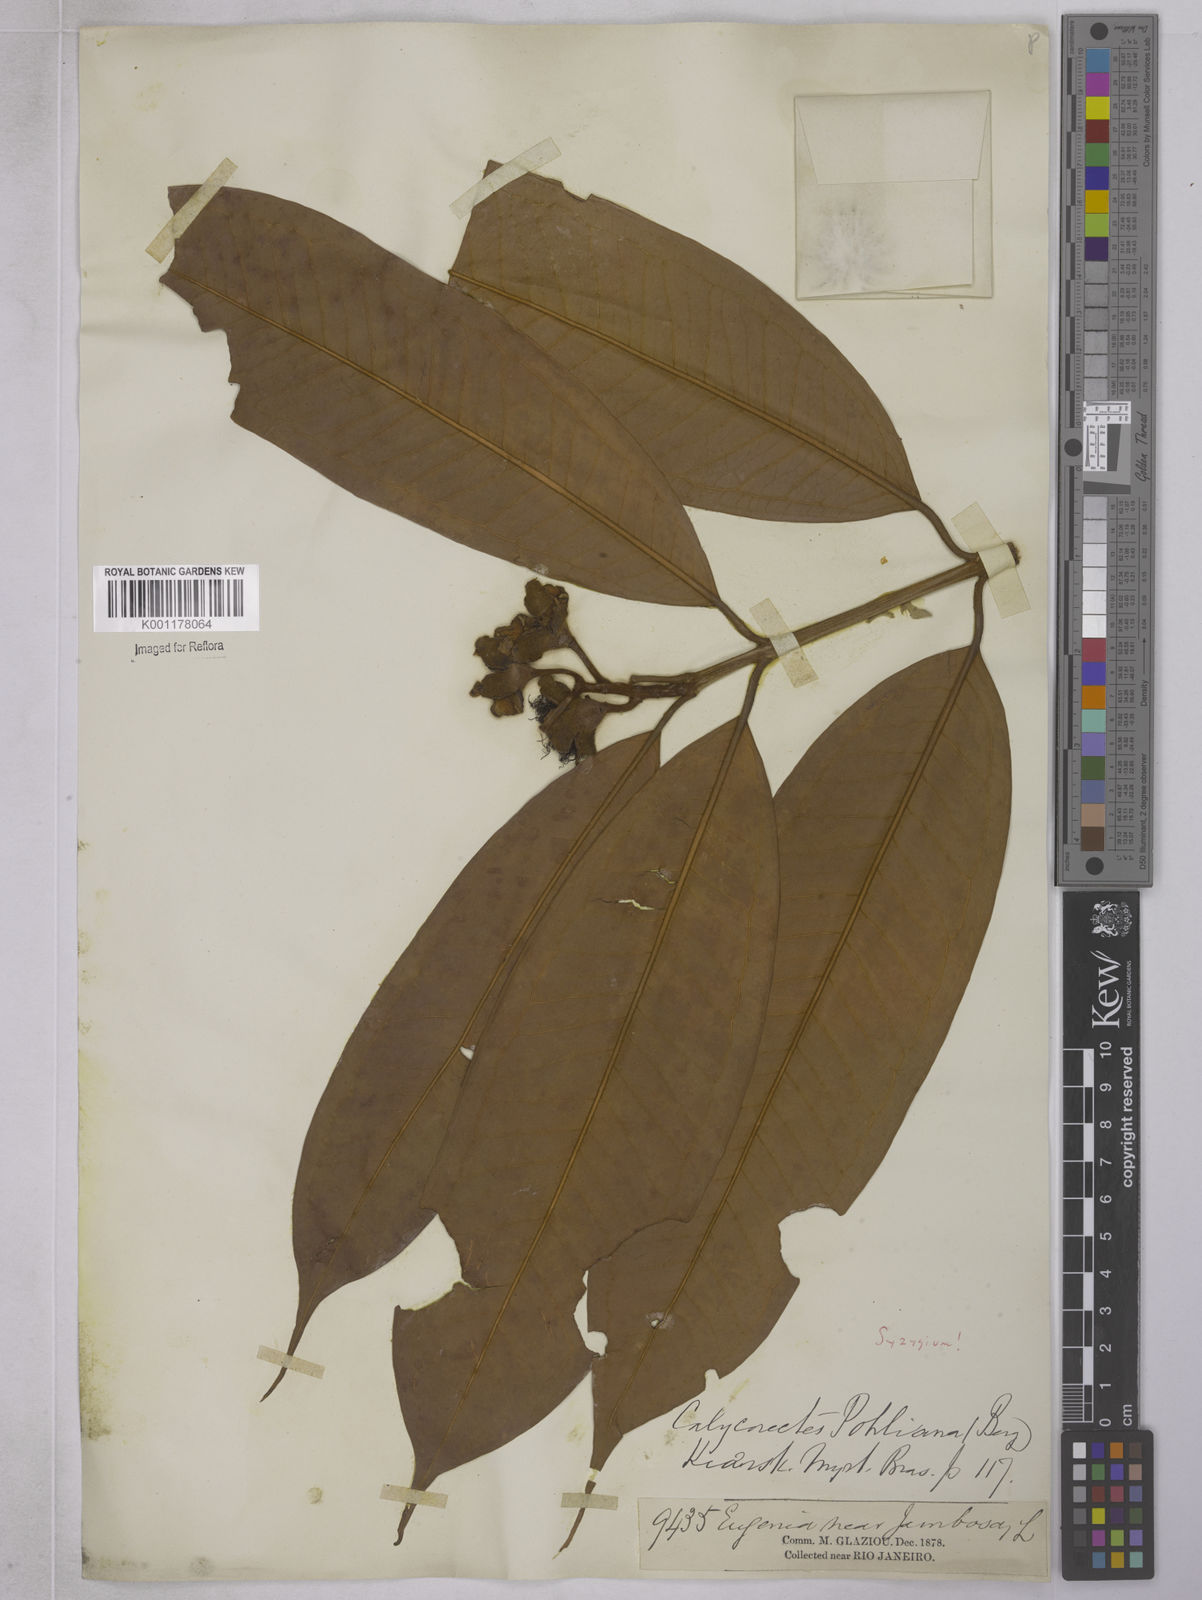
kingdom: Plantae
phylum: Tracheophyta
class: Magnoliopsida
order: Myrtales
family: Myrtaceae
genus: Eugenia
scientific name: Eugenia
